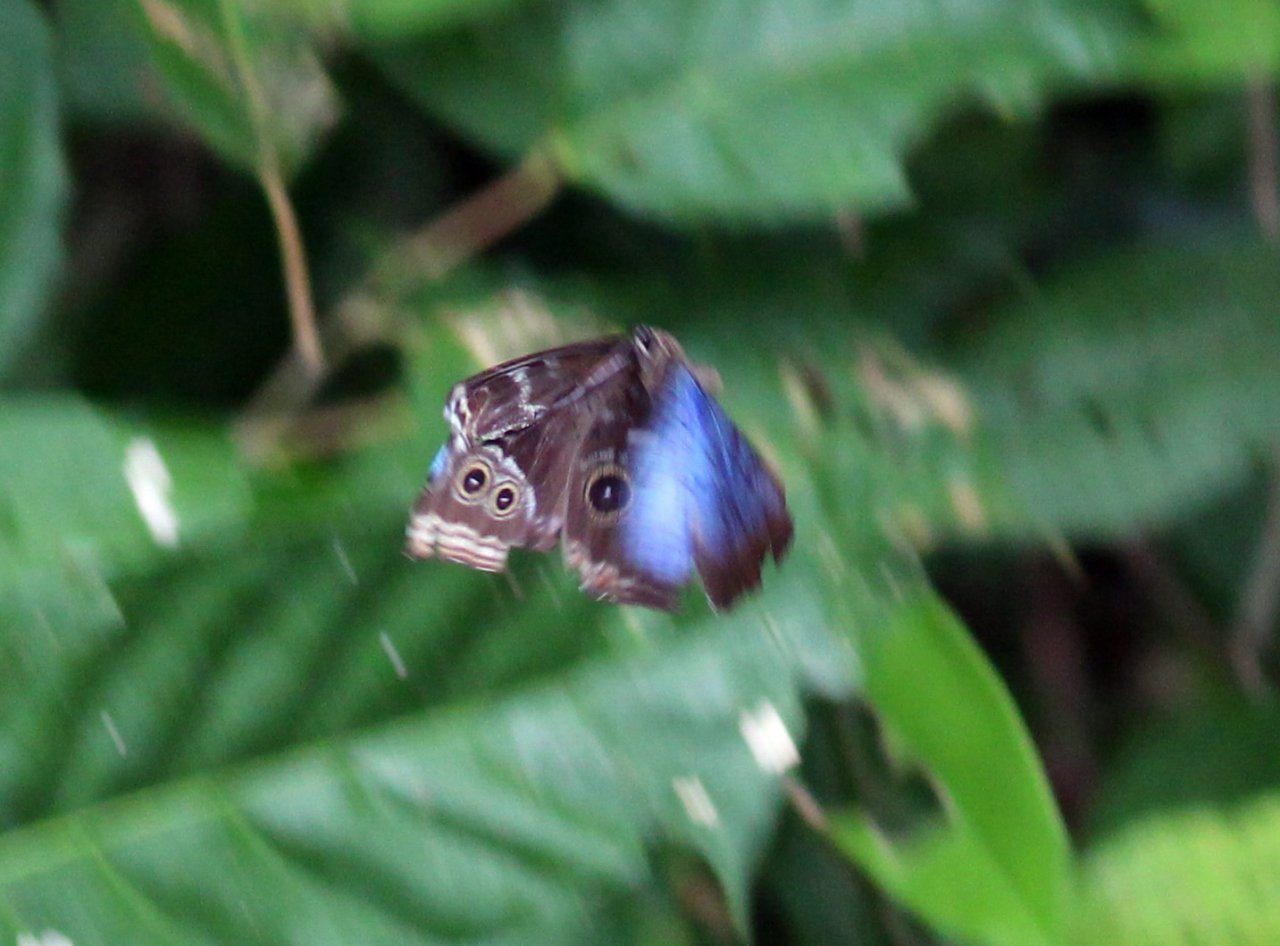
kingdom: Animalia
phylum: Arthropoda
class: Insecta
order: Lepidoptera
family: Nymphalidae
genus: Morpho
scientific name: Morpho helenor
